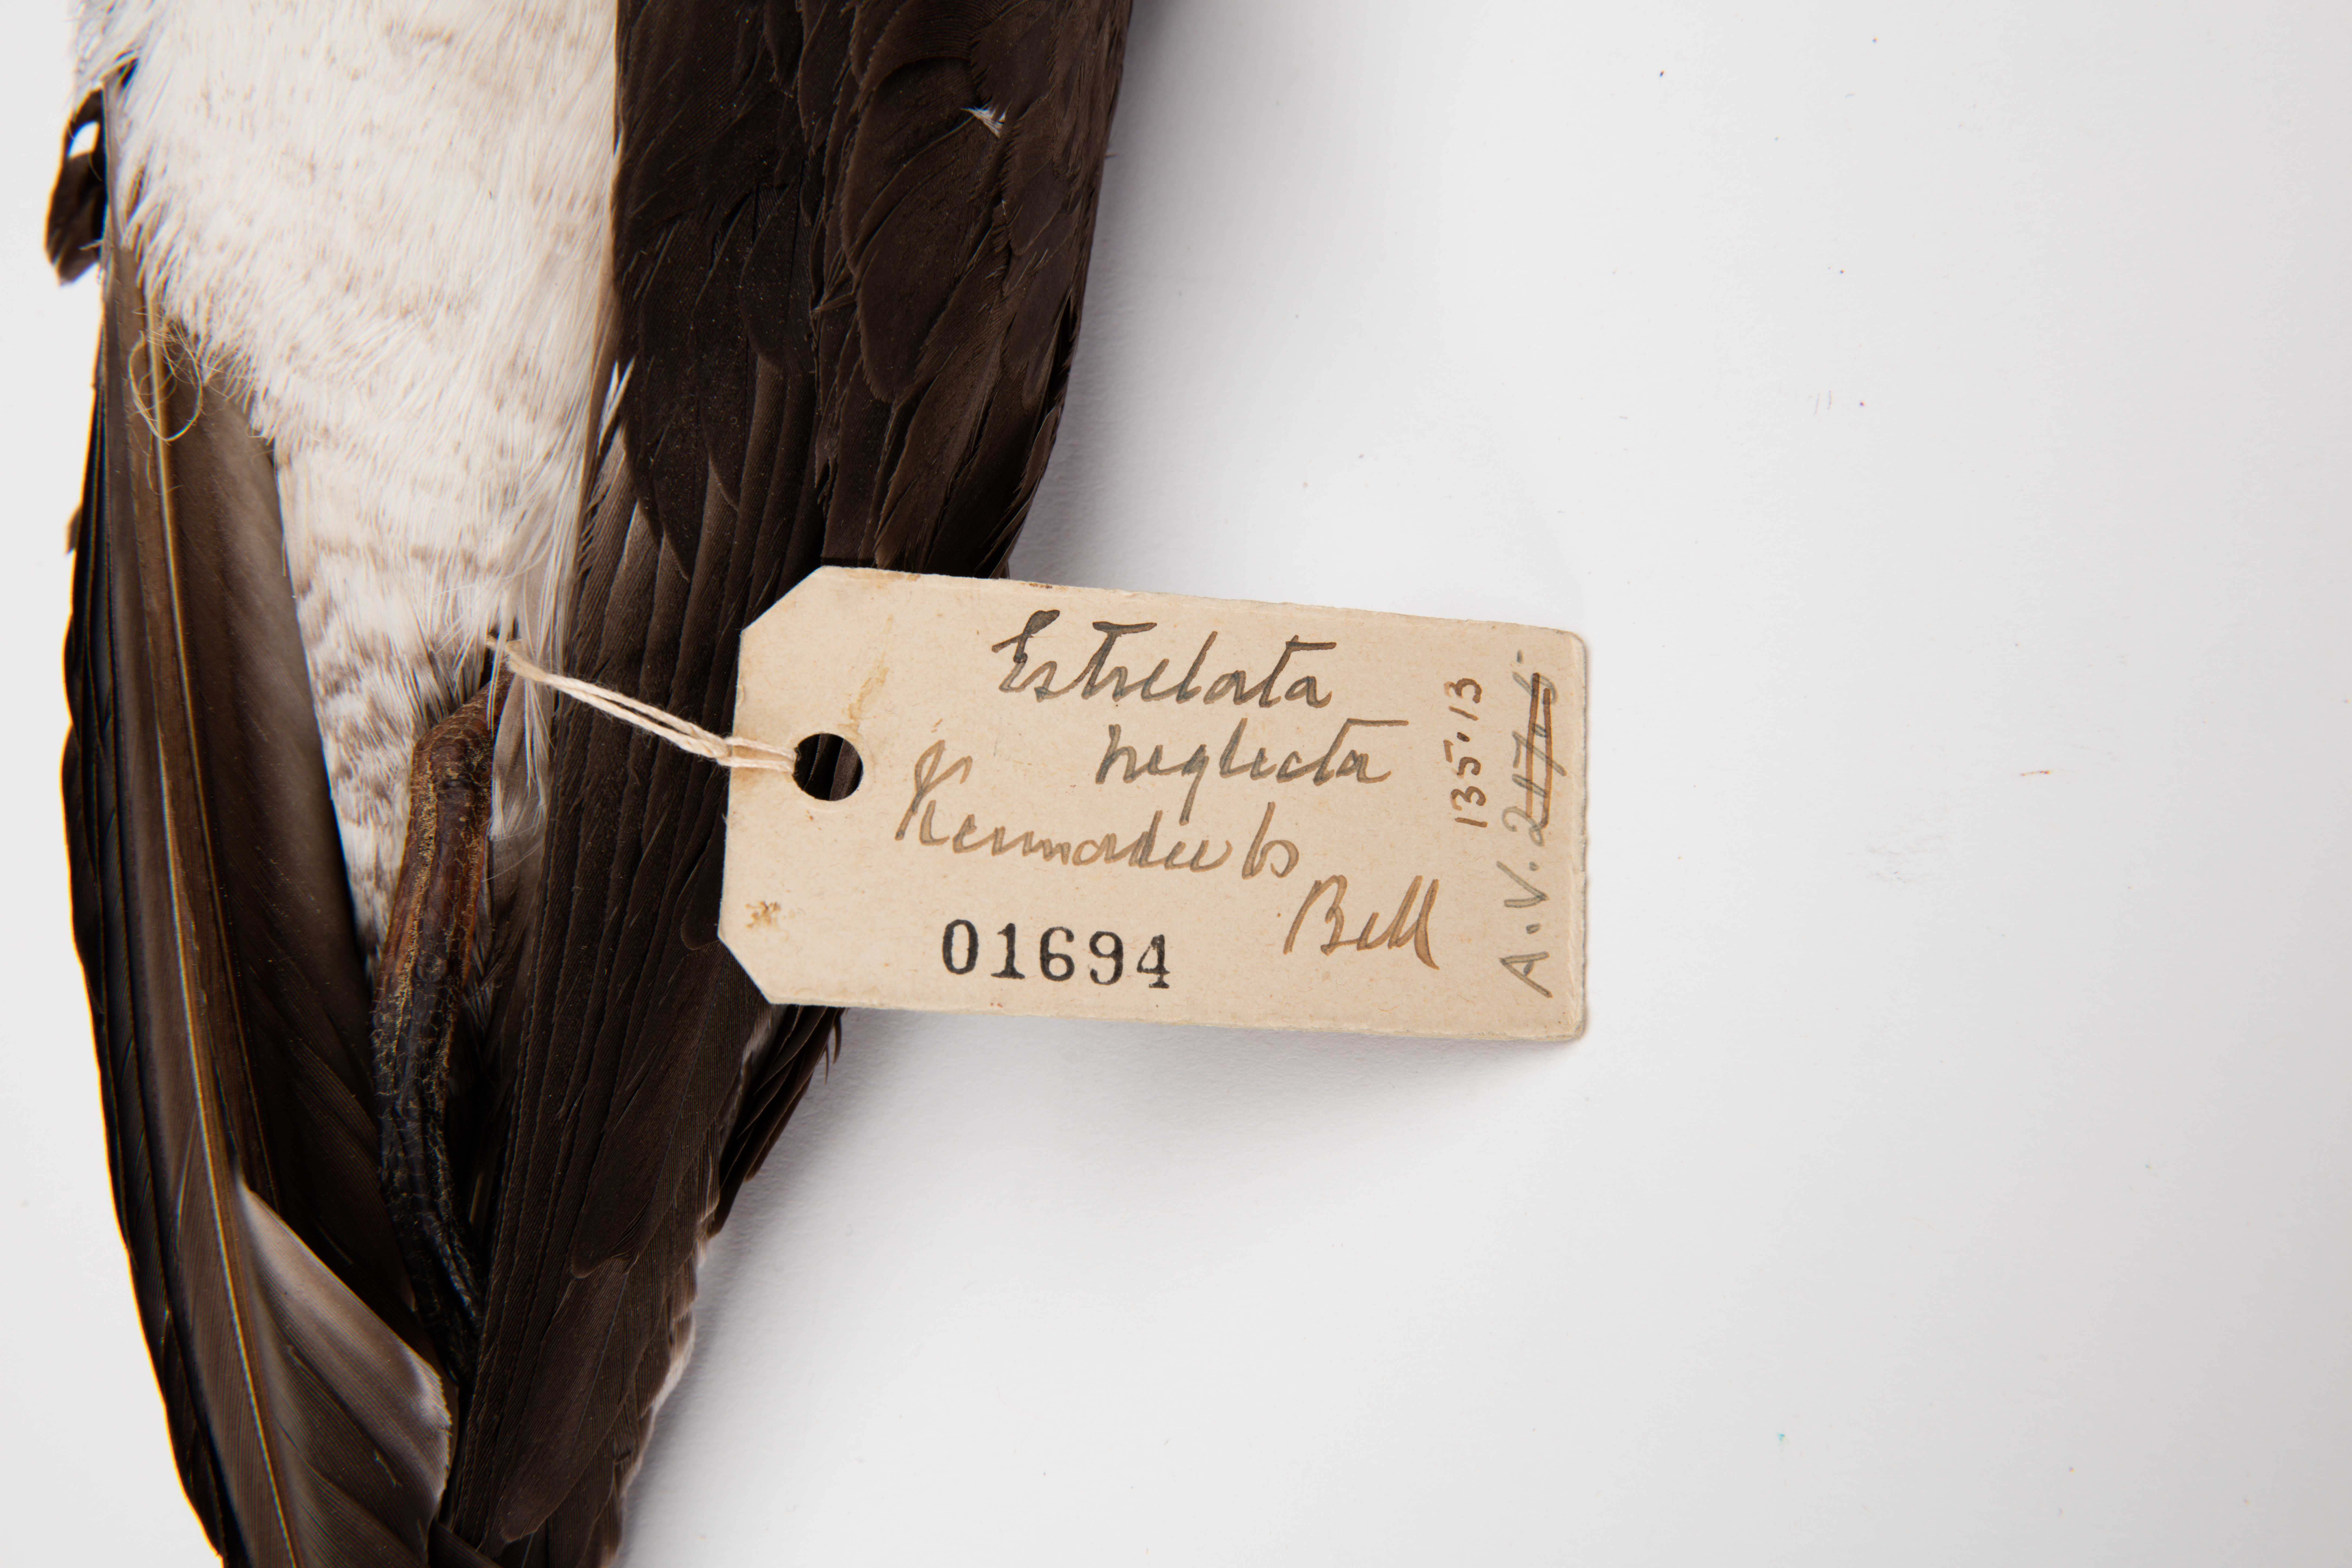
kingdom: Animalia
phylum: Chordata
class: Aves
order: Procellariiformes
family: Procellariidae
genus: Pterodroma
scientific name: Pterodroma neglecta
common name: Kermadec petrel
